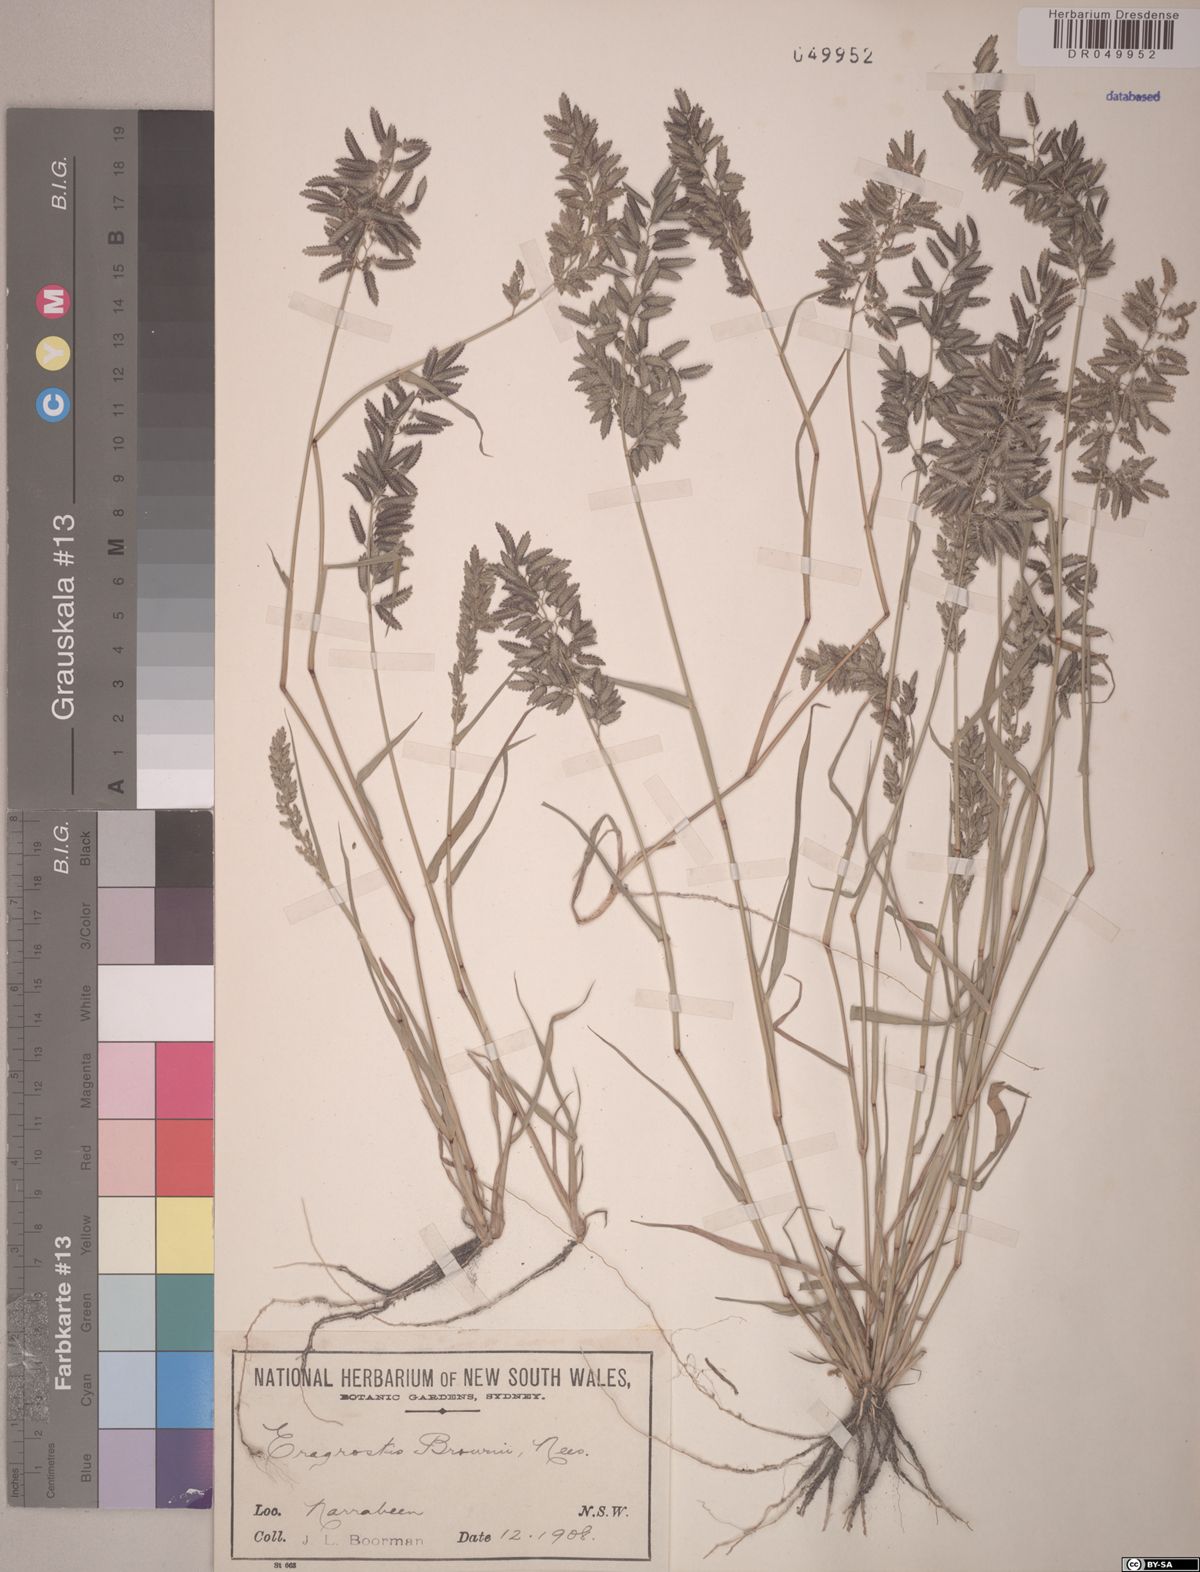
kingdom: Plantae
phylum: Tracheophyta
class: Liliopsida
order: Poales
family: Poaceae
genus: Eragrostis
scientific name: Eragrostis brownii
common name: Lovegrass
